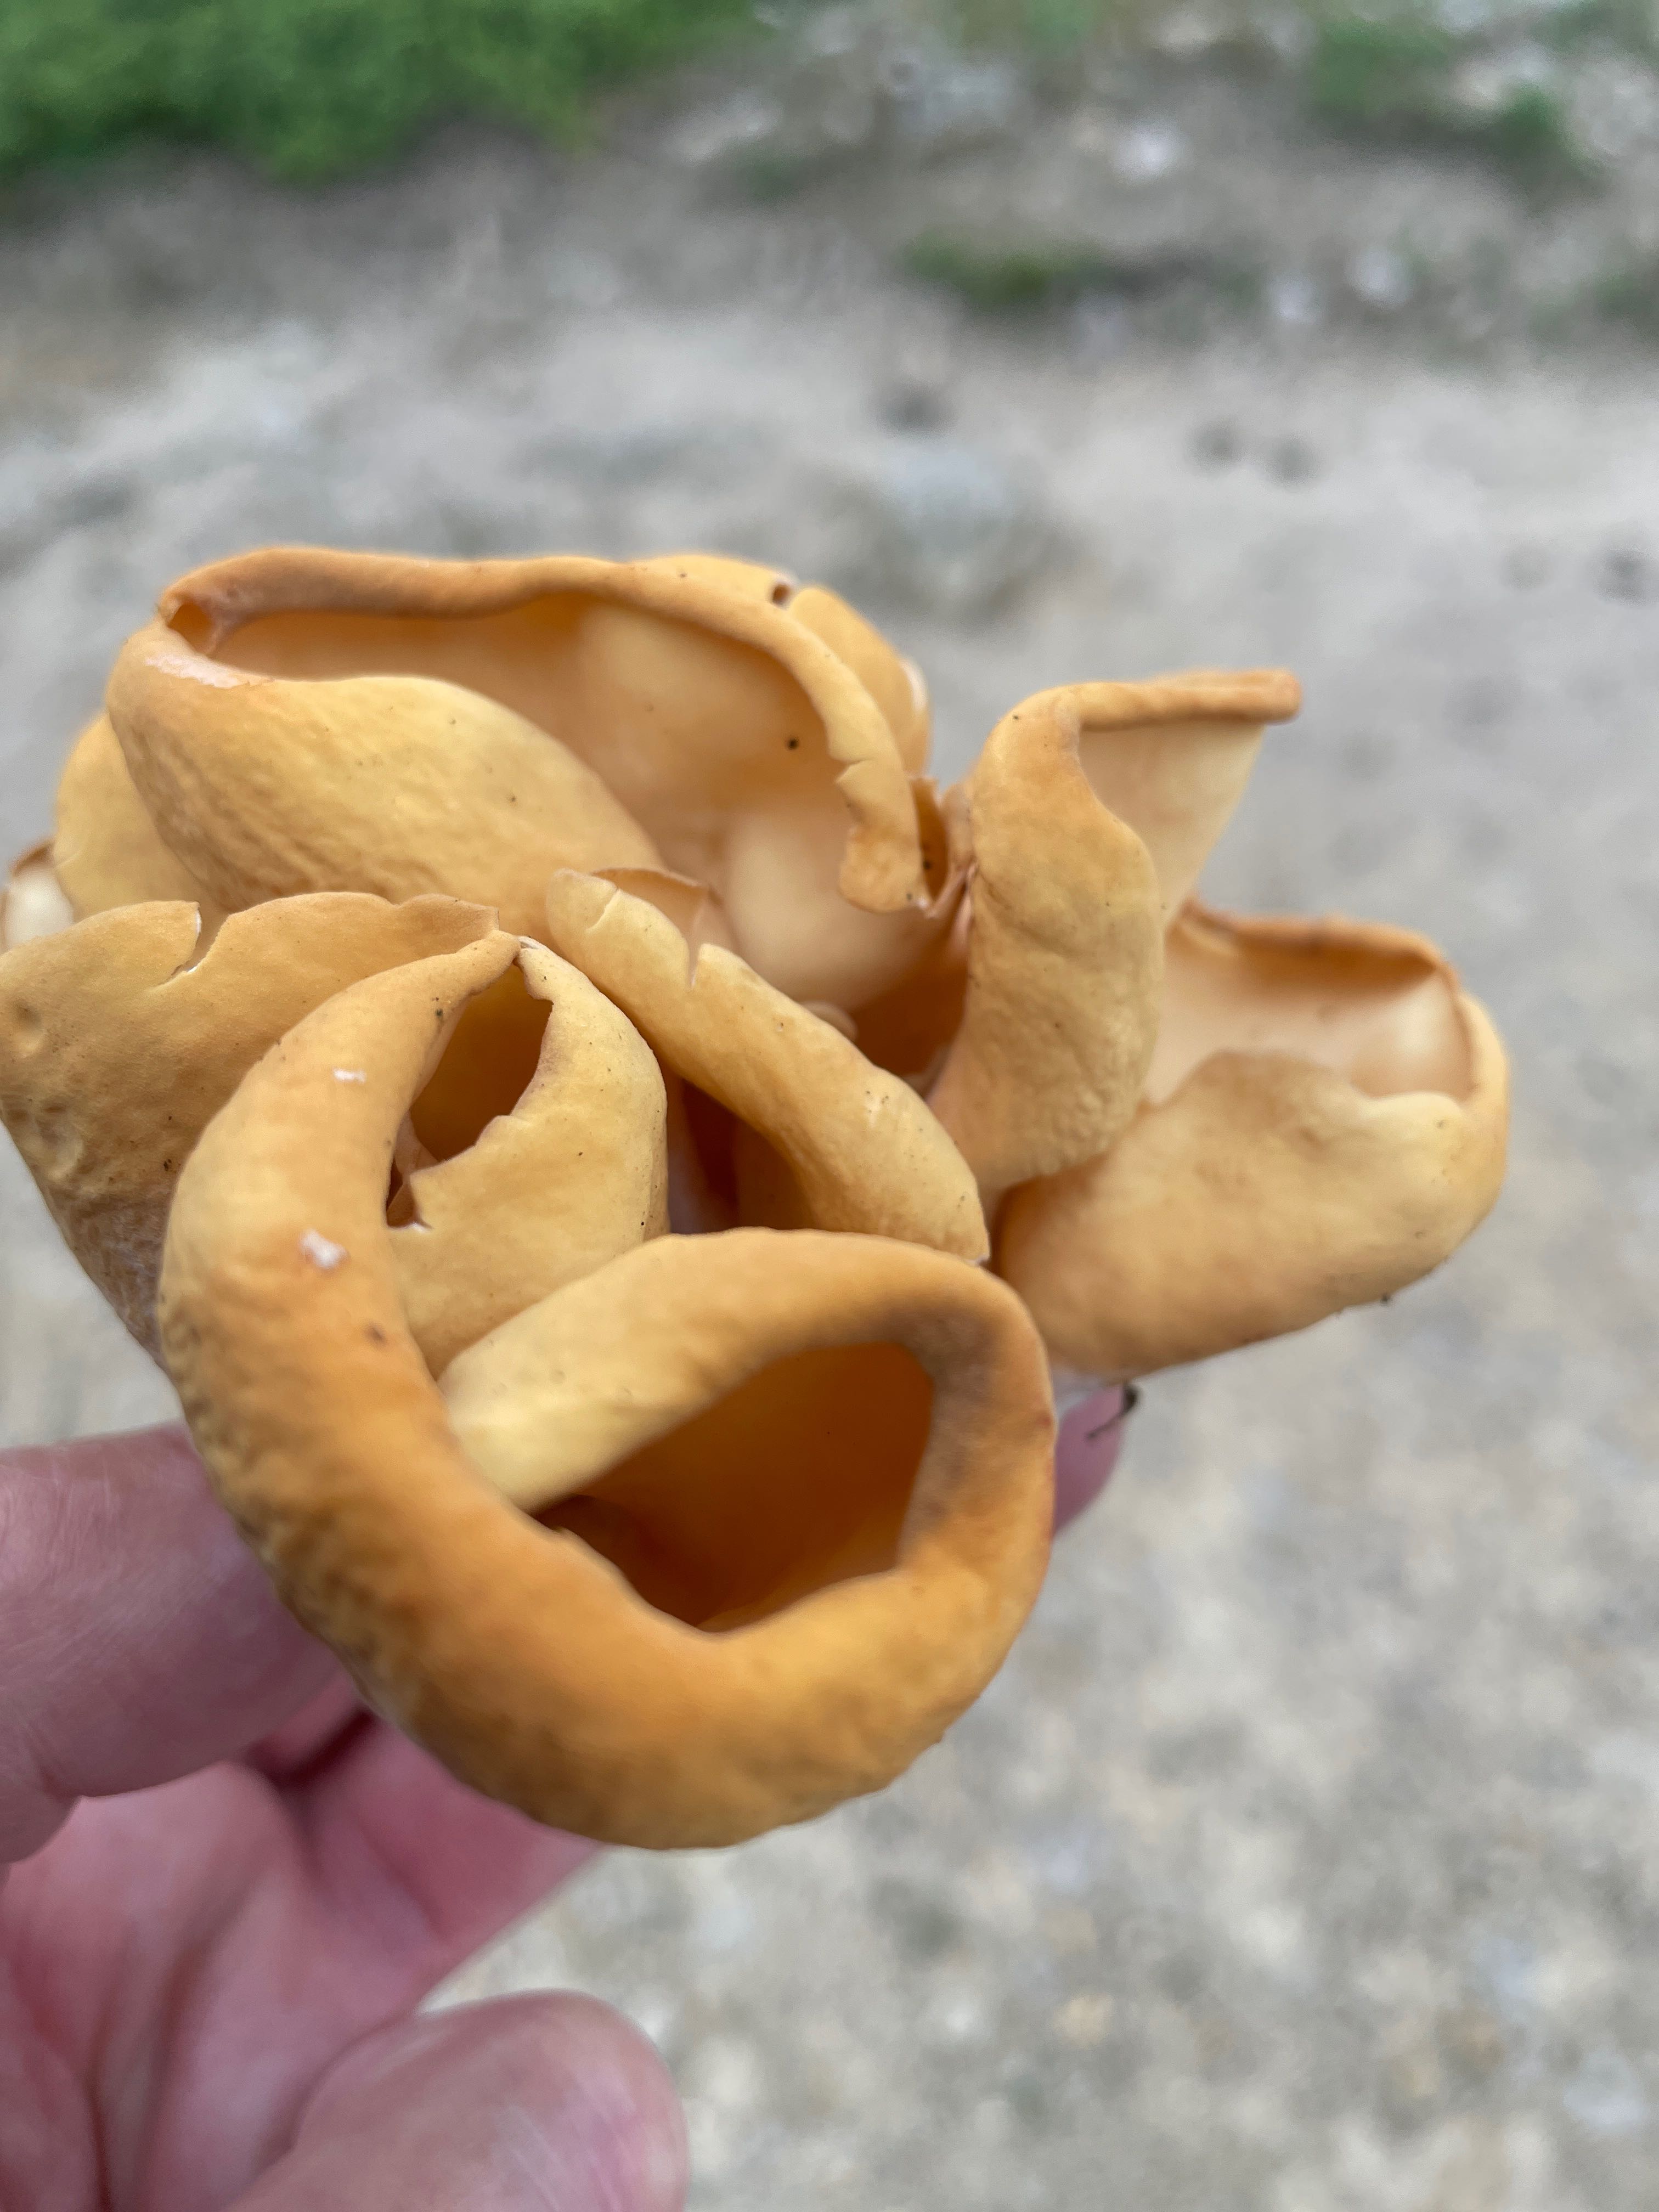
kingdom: Fungi
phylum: Ascomycota
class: Pezizomycetes
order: Pezizales
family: Otideaceae
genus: Otidea
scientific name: Otidea onotica
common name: æsel-ørebæger
